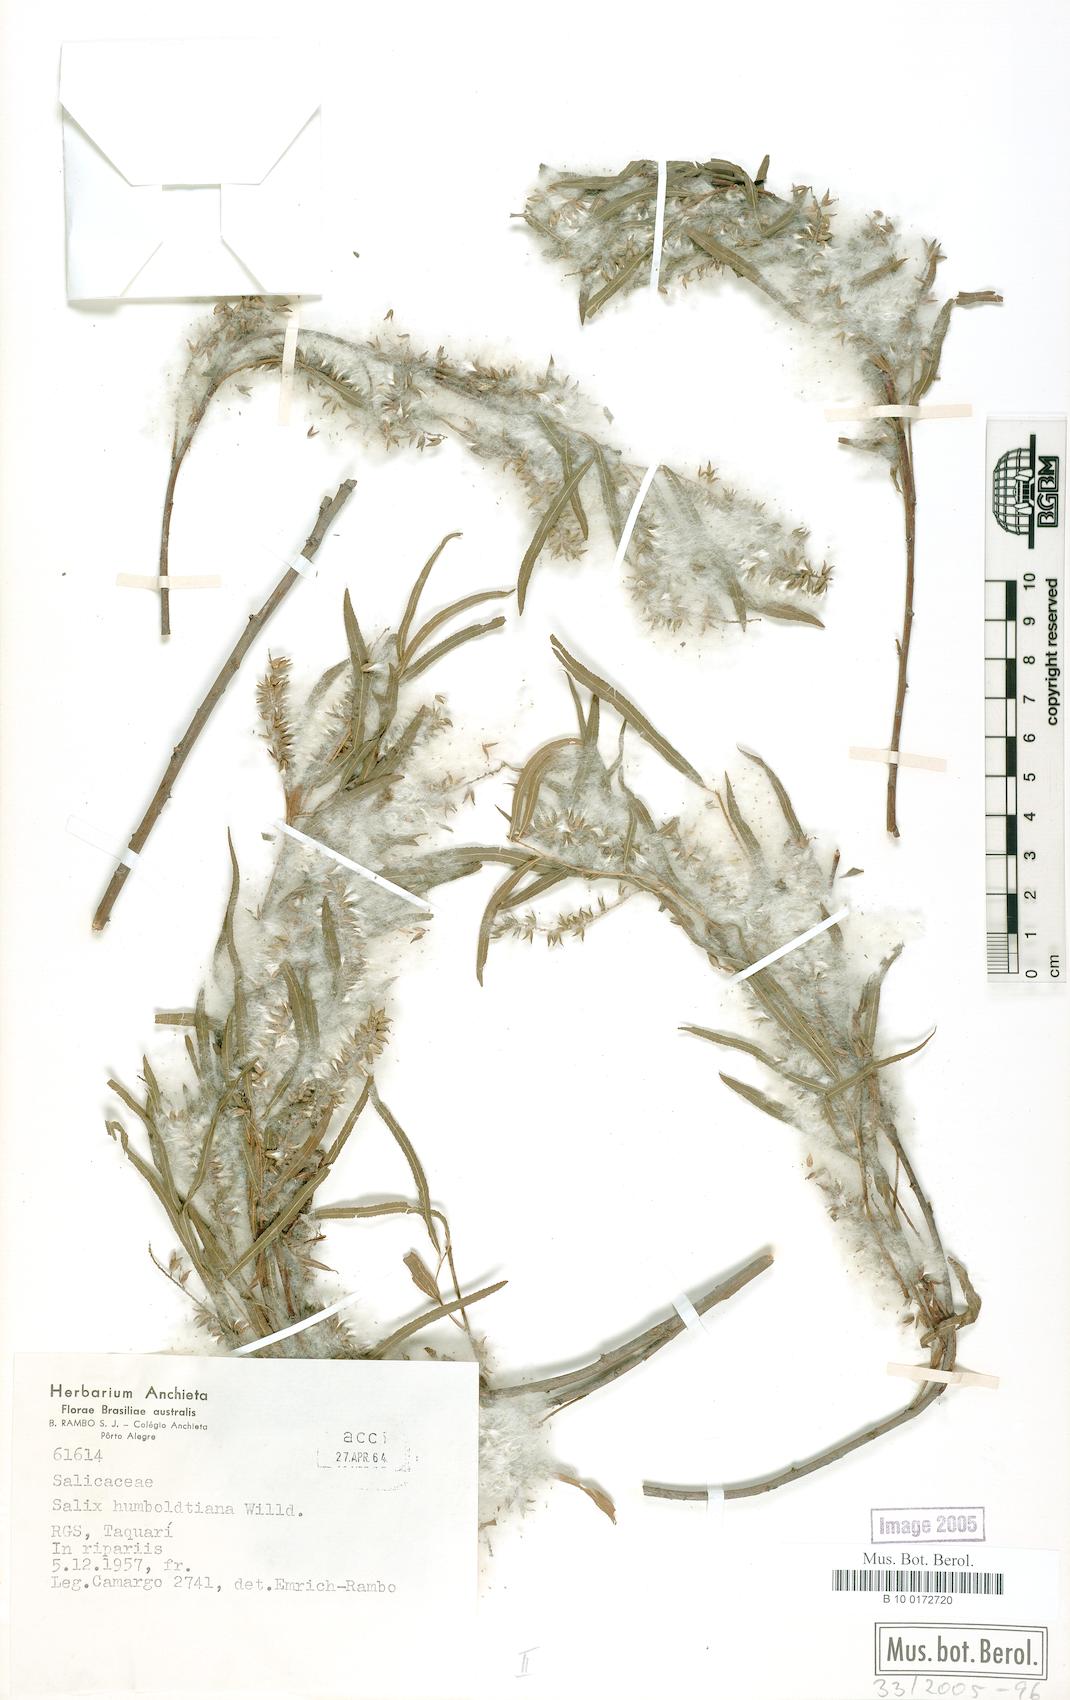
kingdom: Plantae
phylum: Tracheophyta
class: Magnoliopsida
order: Malpighiales
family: Salicaceae
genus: Salix
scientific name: Salix humboldtiana
